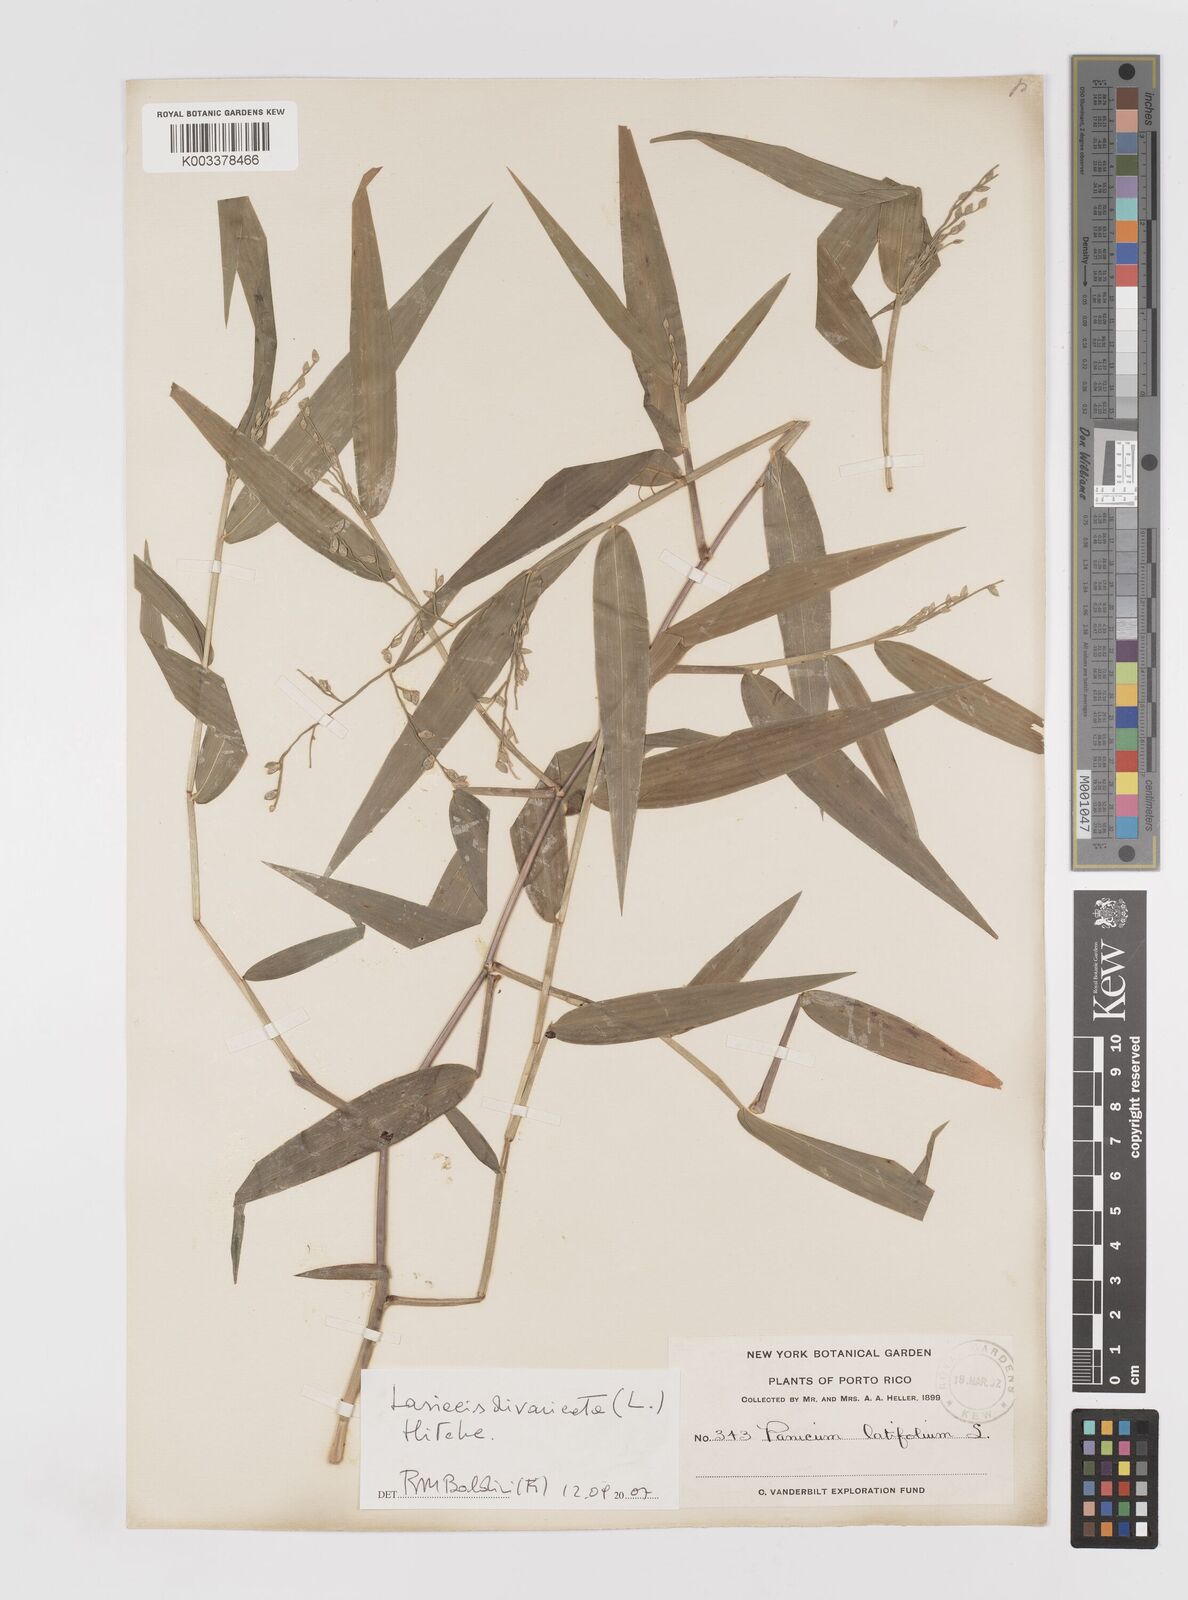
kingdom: Plantae
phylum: Tracheophyta
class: Liliopsida
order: Poales
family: Poaceae
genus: Lasiacis
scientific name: Lasiacis divaricata
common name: Smallcane
